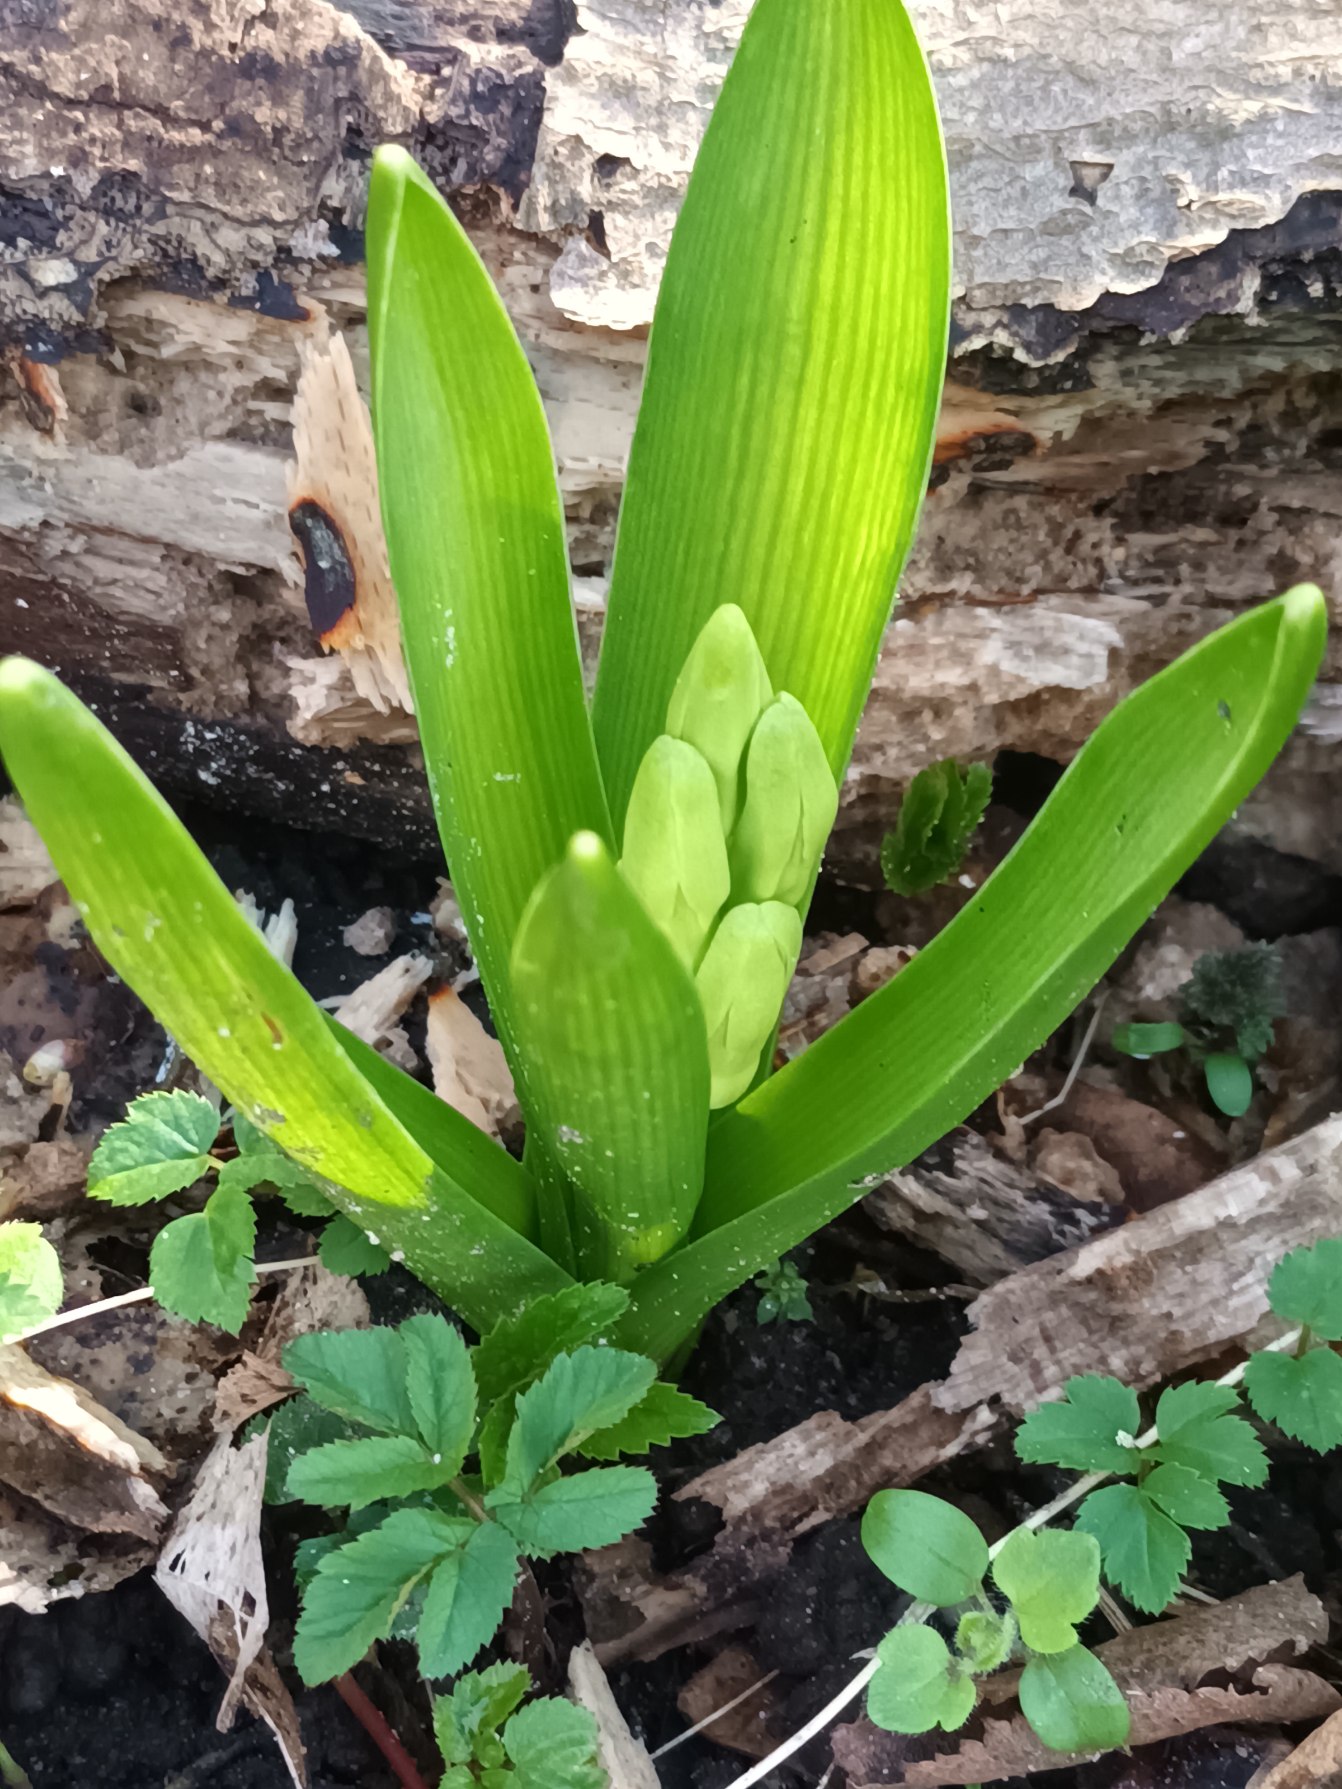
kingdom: Plantae
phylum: Tracheophyta
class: Liliopsida
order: Asparagales
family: Asparagaceae
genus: Hyacinthus
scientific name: Hyacinthus orientalis
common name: Hyacint
